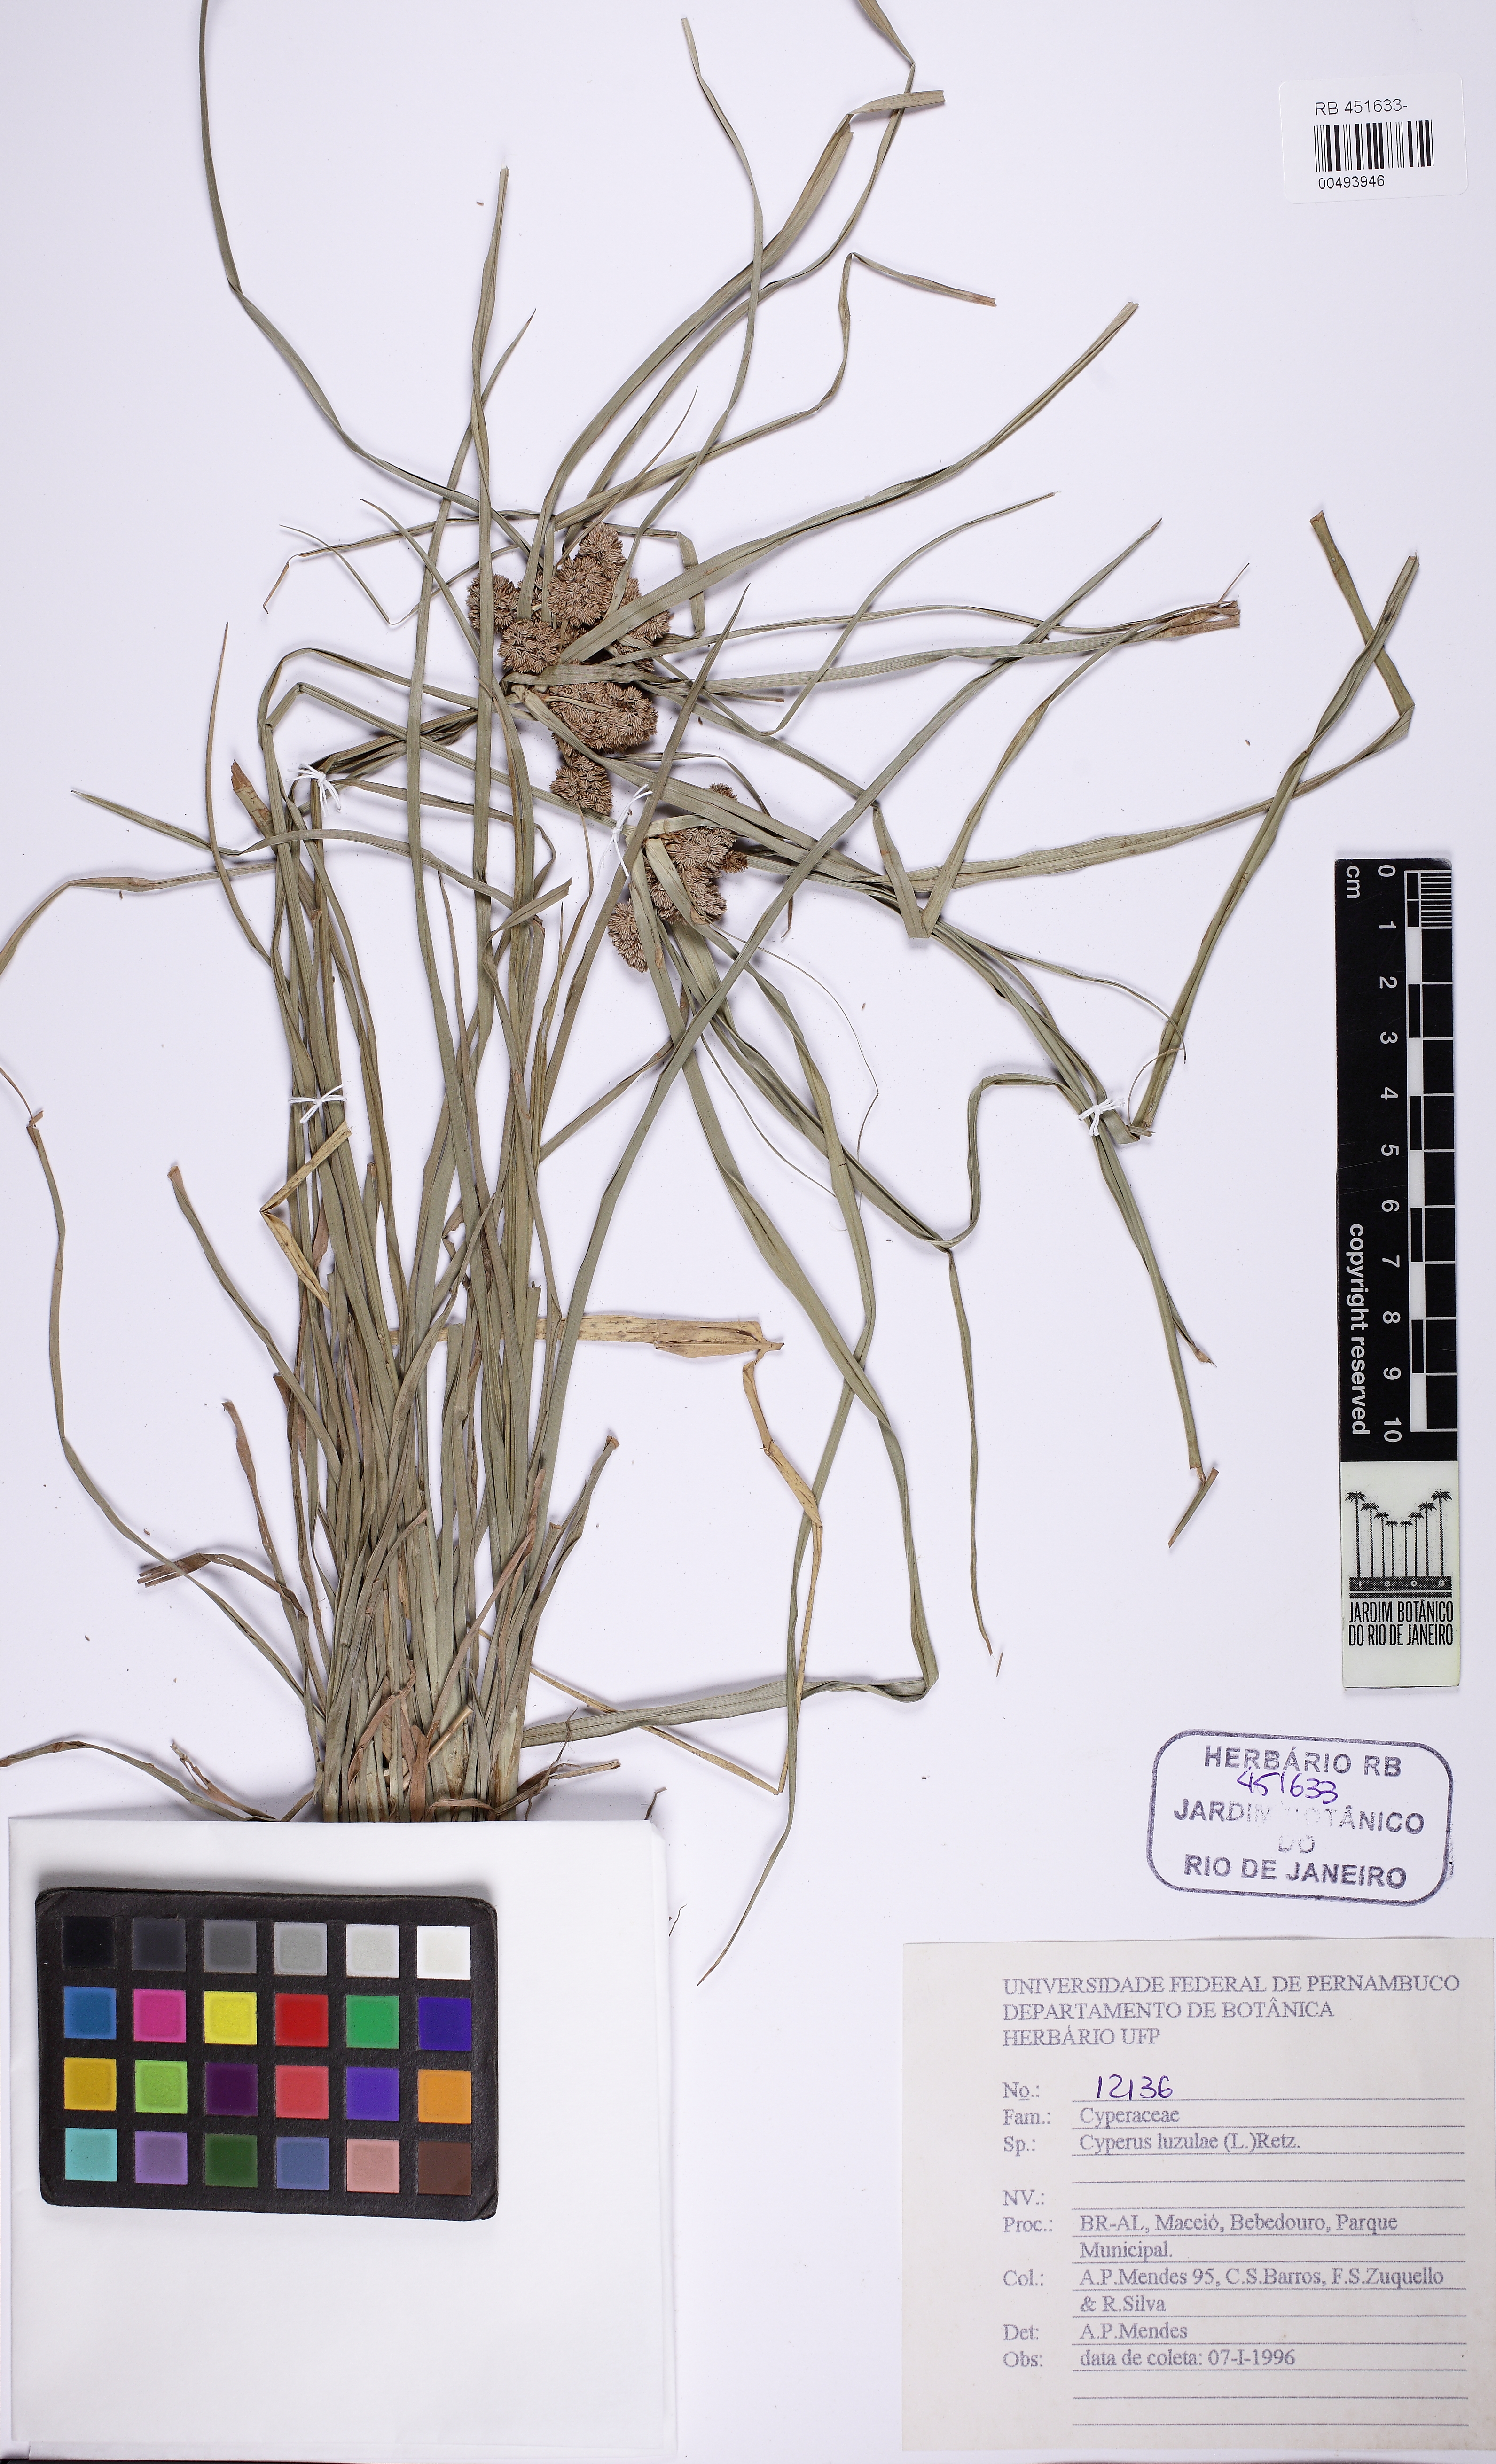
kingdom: Plantae
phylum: Tracheophyta
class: Liliopsida
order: Poales
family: Cyperaceae
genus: Cyperus
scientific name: Cyperus luzulae
